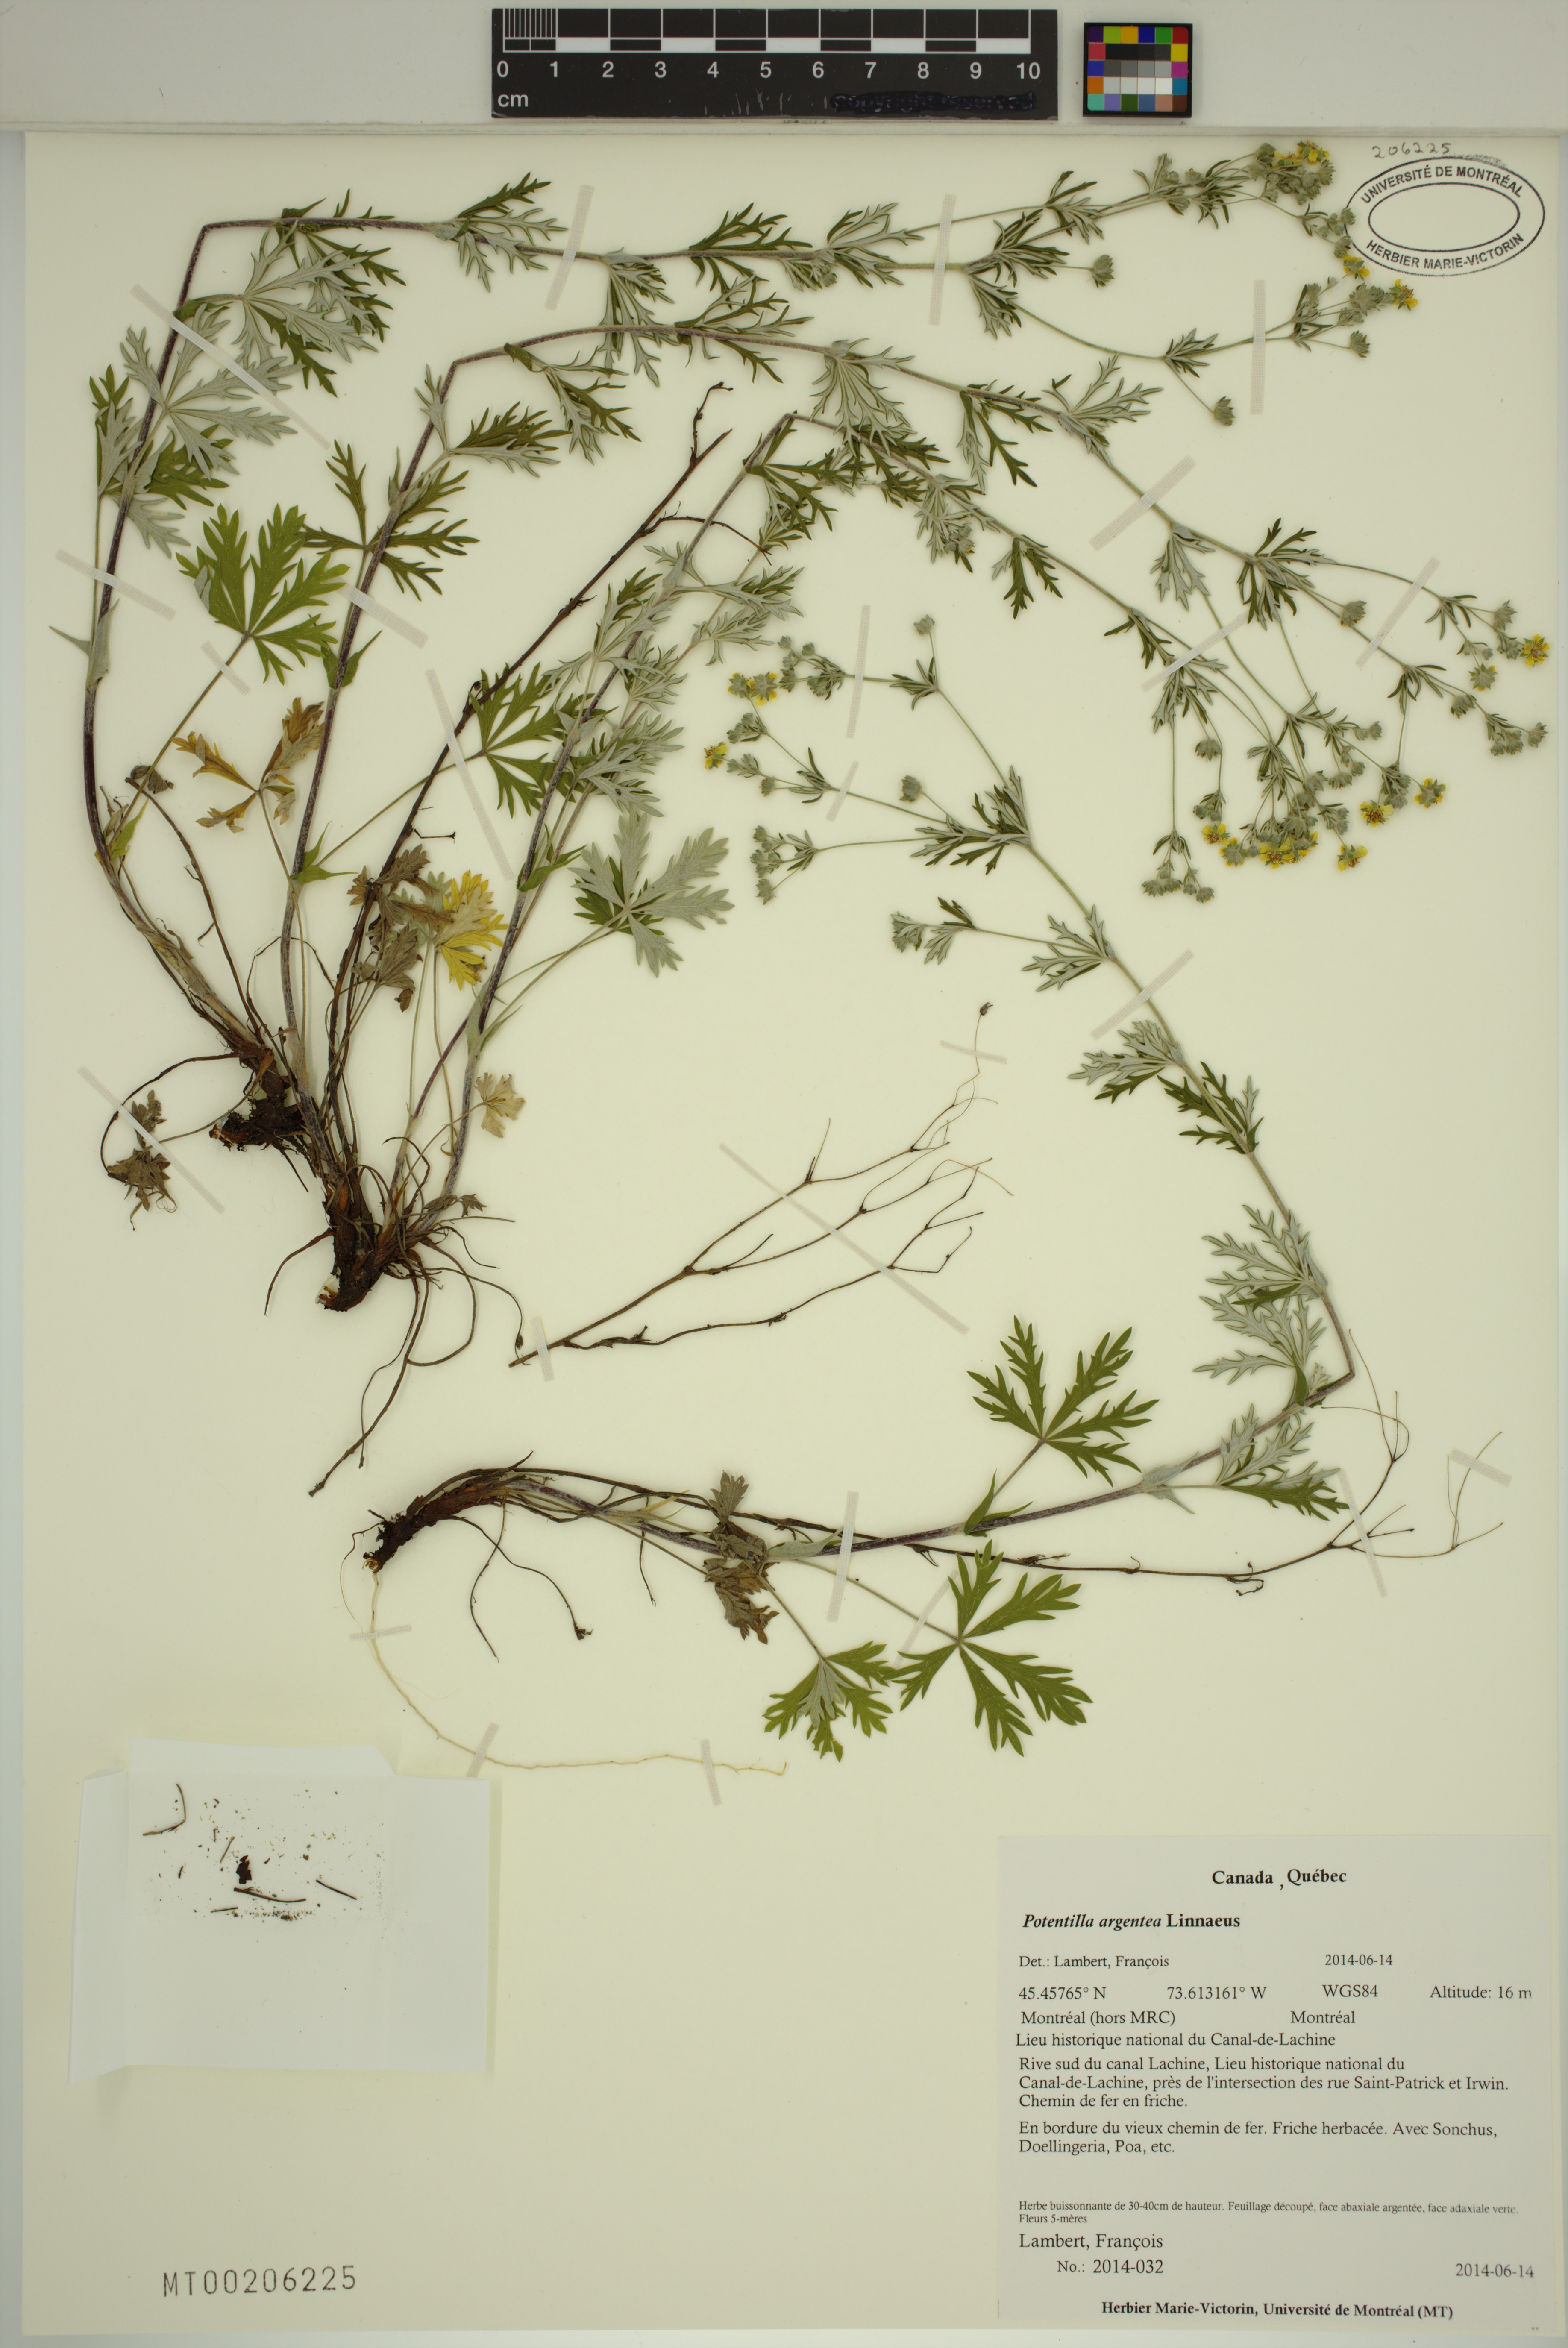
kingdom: Plantae
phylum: Tracheophyta
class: Magnoliopsida
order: Rosales
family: Rosaceae
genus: Potentilla
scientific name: Potentilla argentea
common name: Hoary cinquefoil
